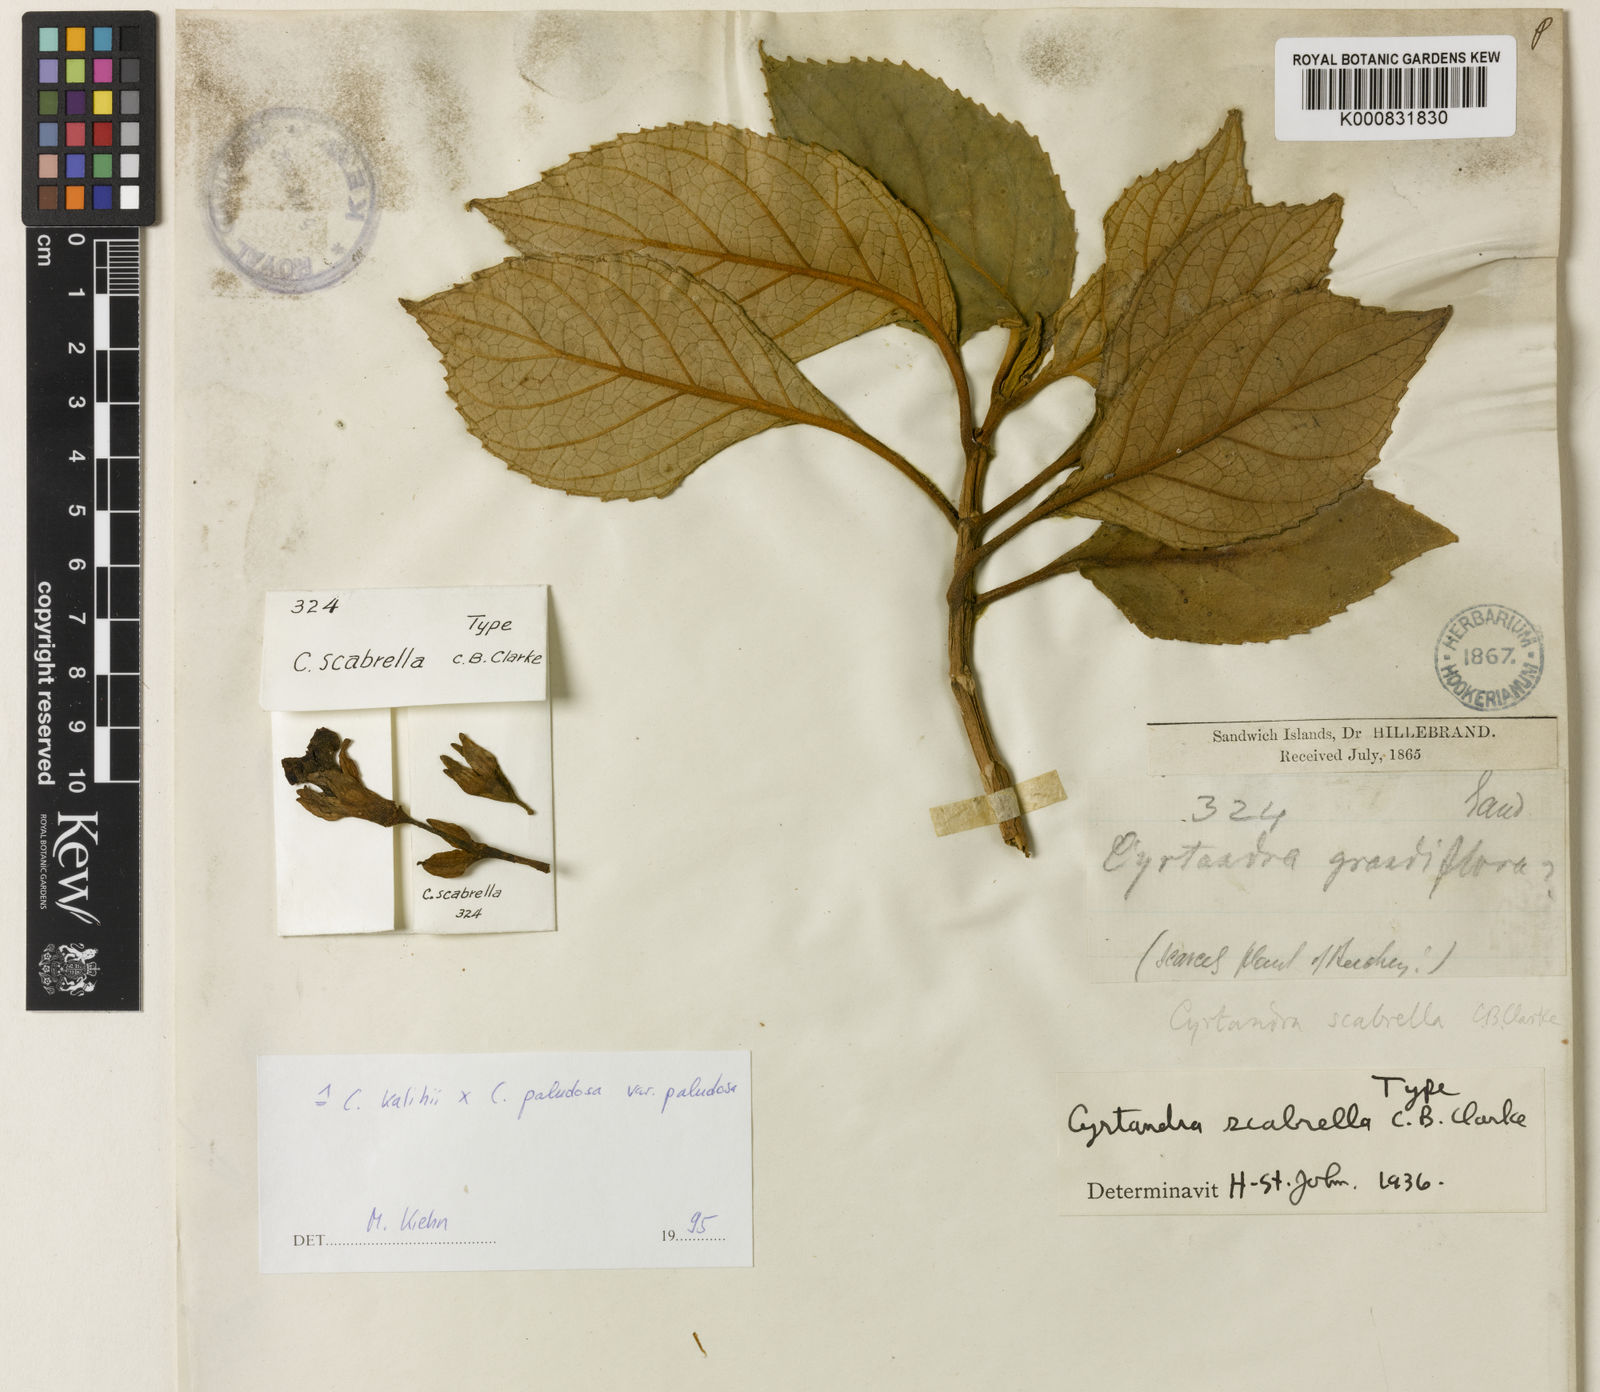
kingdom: Plantae
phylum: Tracheophyta
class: Magnoliopsida
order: Lamiales
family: Gesneriaceae
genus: Cyrtandra
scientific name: Cyrtandra
